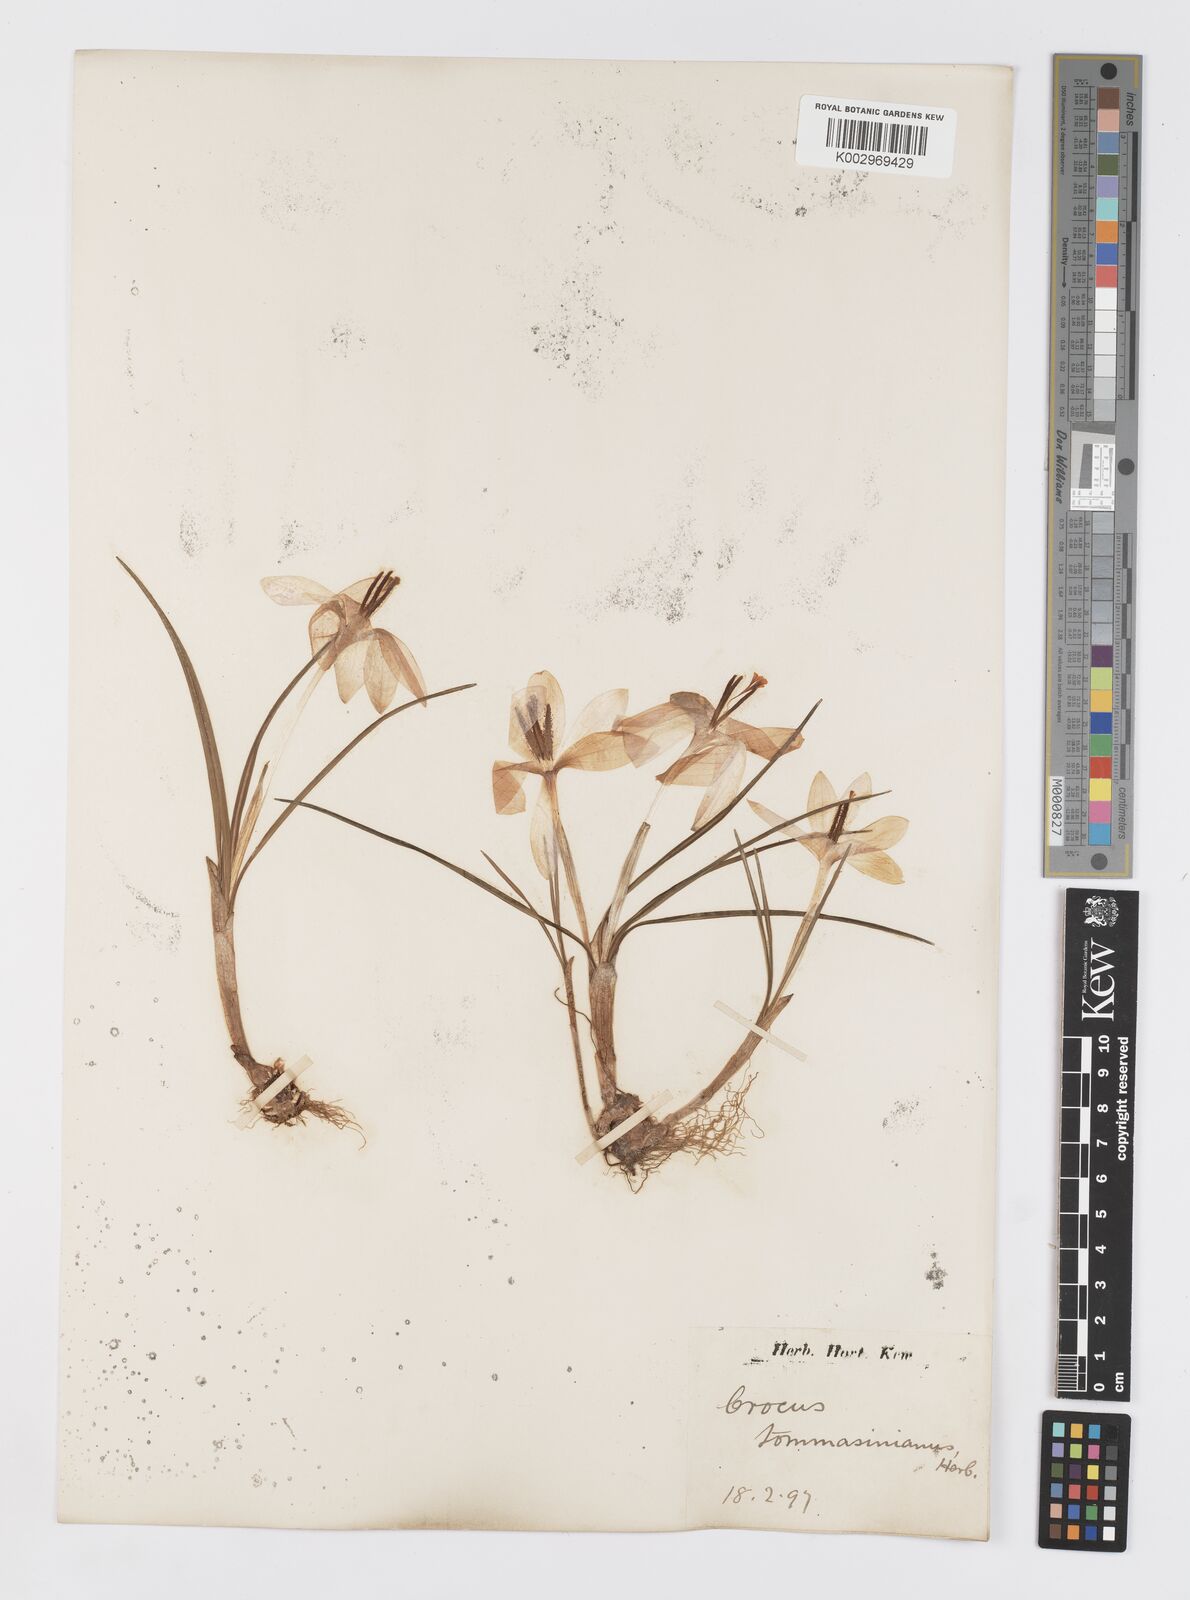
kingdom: Plantae
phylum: Tracheophyta
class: Liliopsida
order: Asparagales
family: Iridaceae
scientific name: Iridaceae
